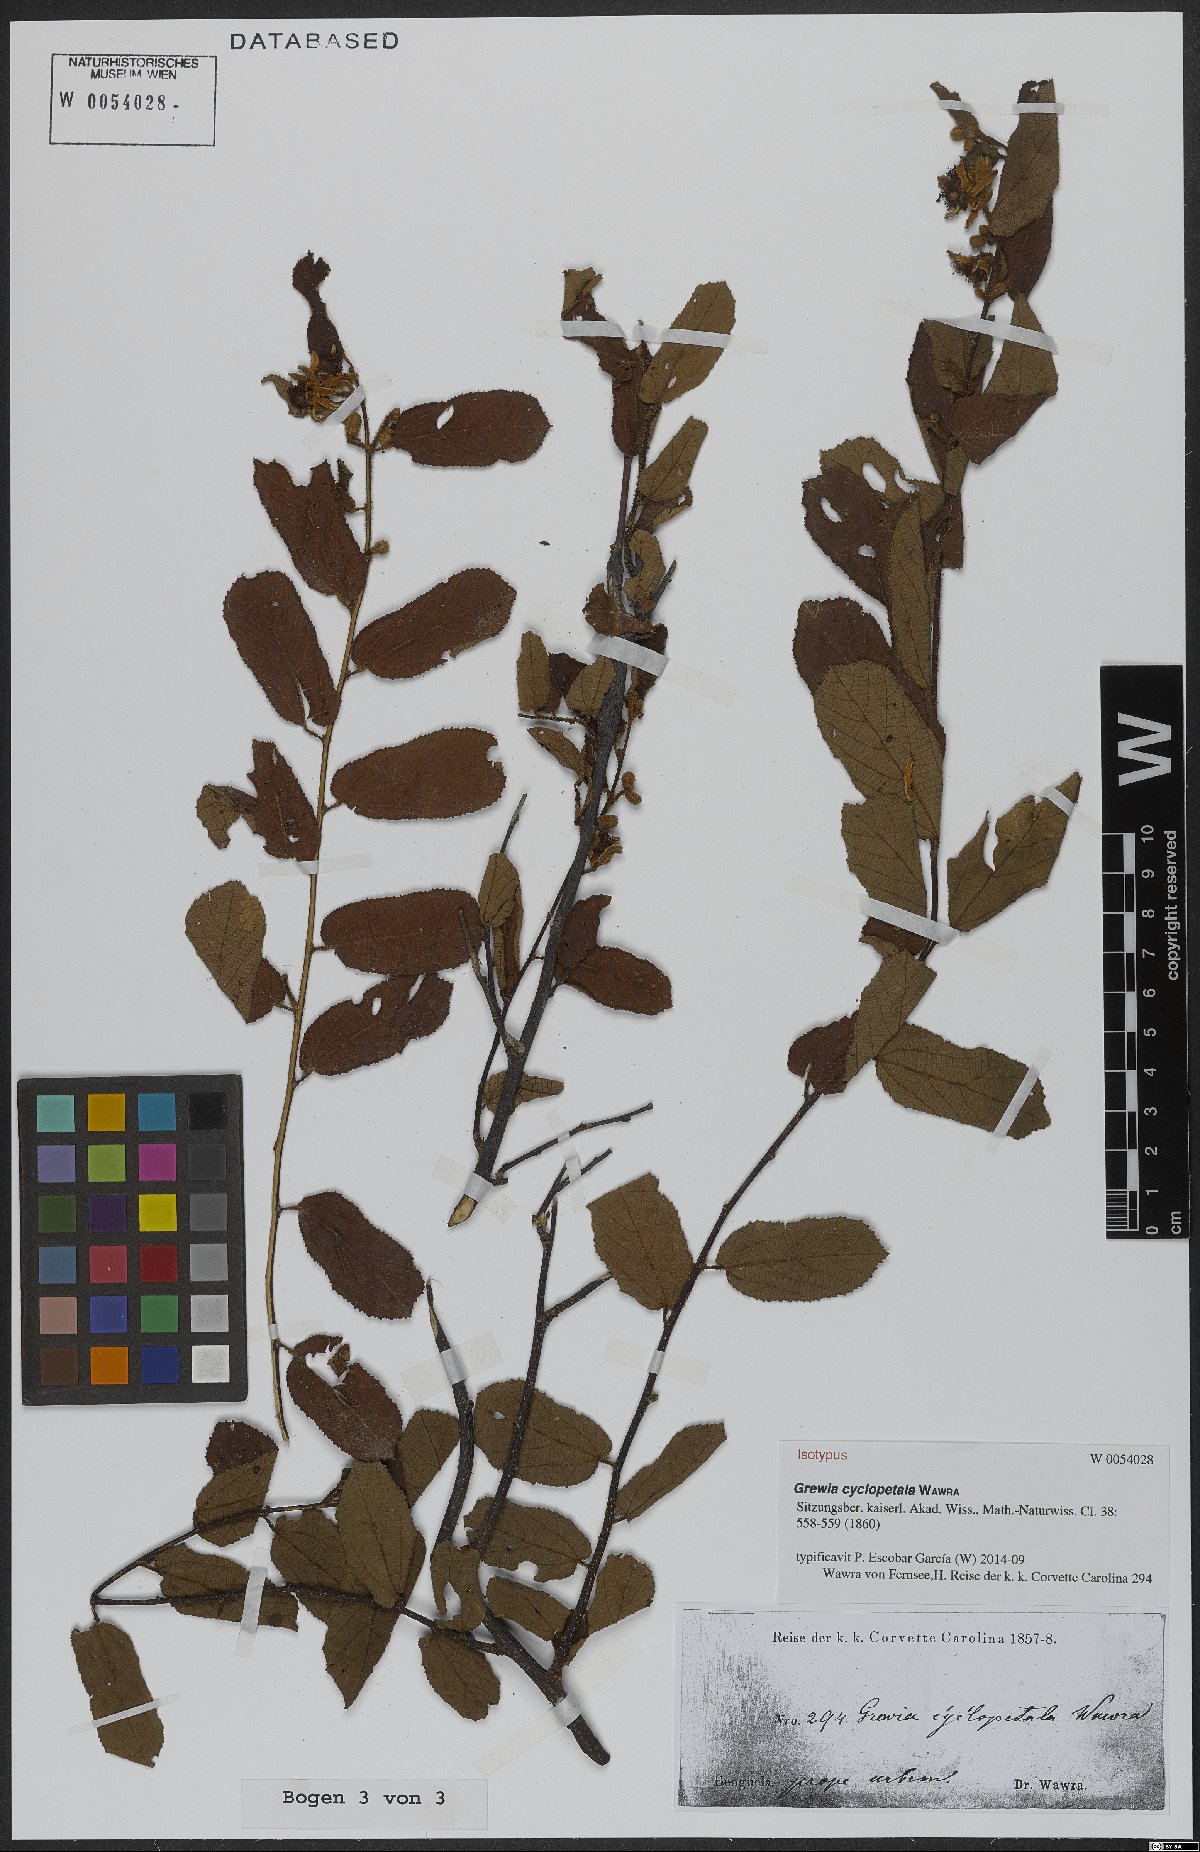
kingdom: Plantae
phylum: Tracheophyta
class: Magnoliopsida
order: Malvales
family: Malvaceae
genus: Grewia
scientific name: Grewia cyclopetala
